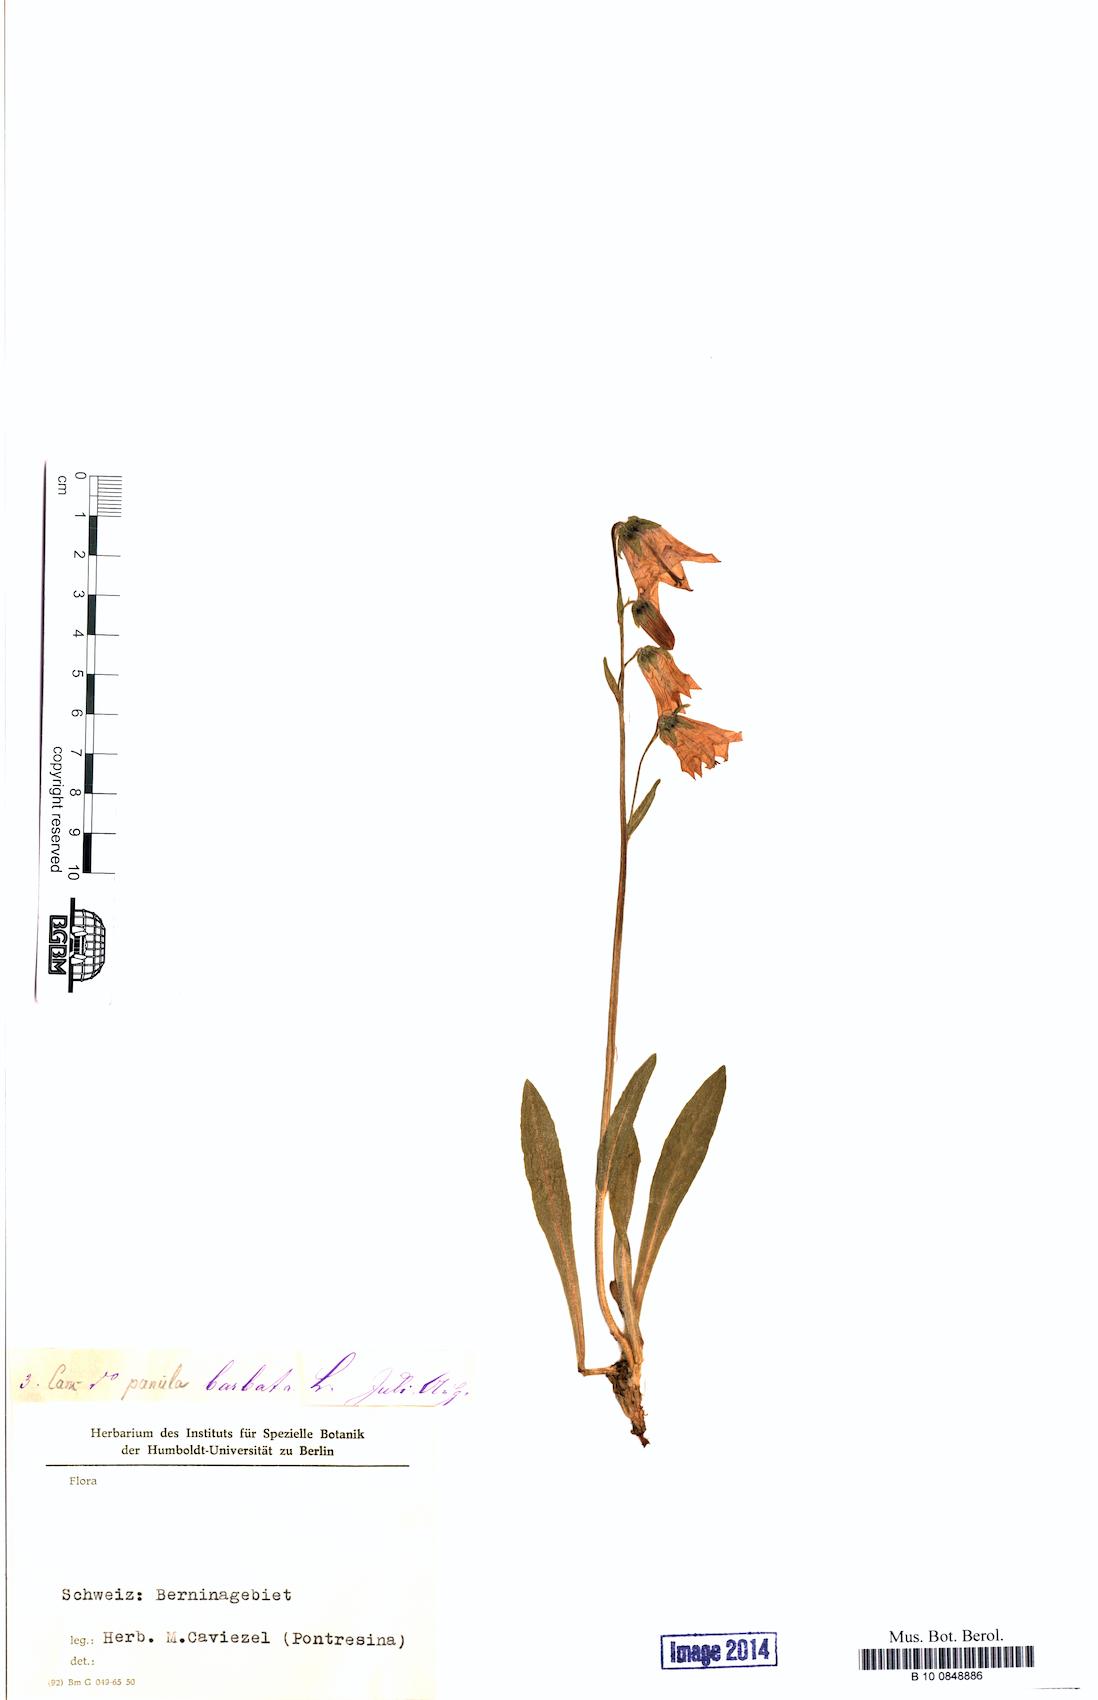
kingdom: Plantae
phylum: Tracheophyta
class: Magnoliopsida
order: Asterales
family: Campanulaceae
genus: Campanula
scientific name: Campanula barbata
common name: Bearded bellflower
